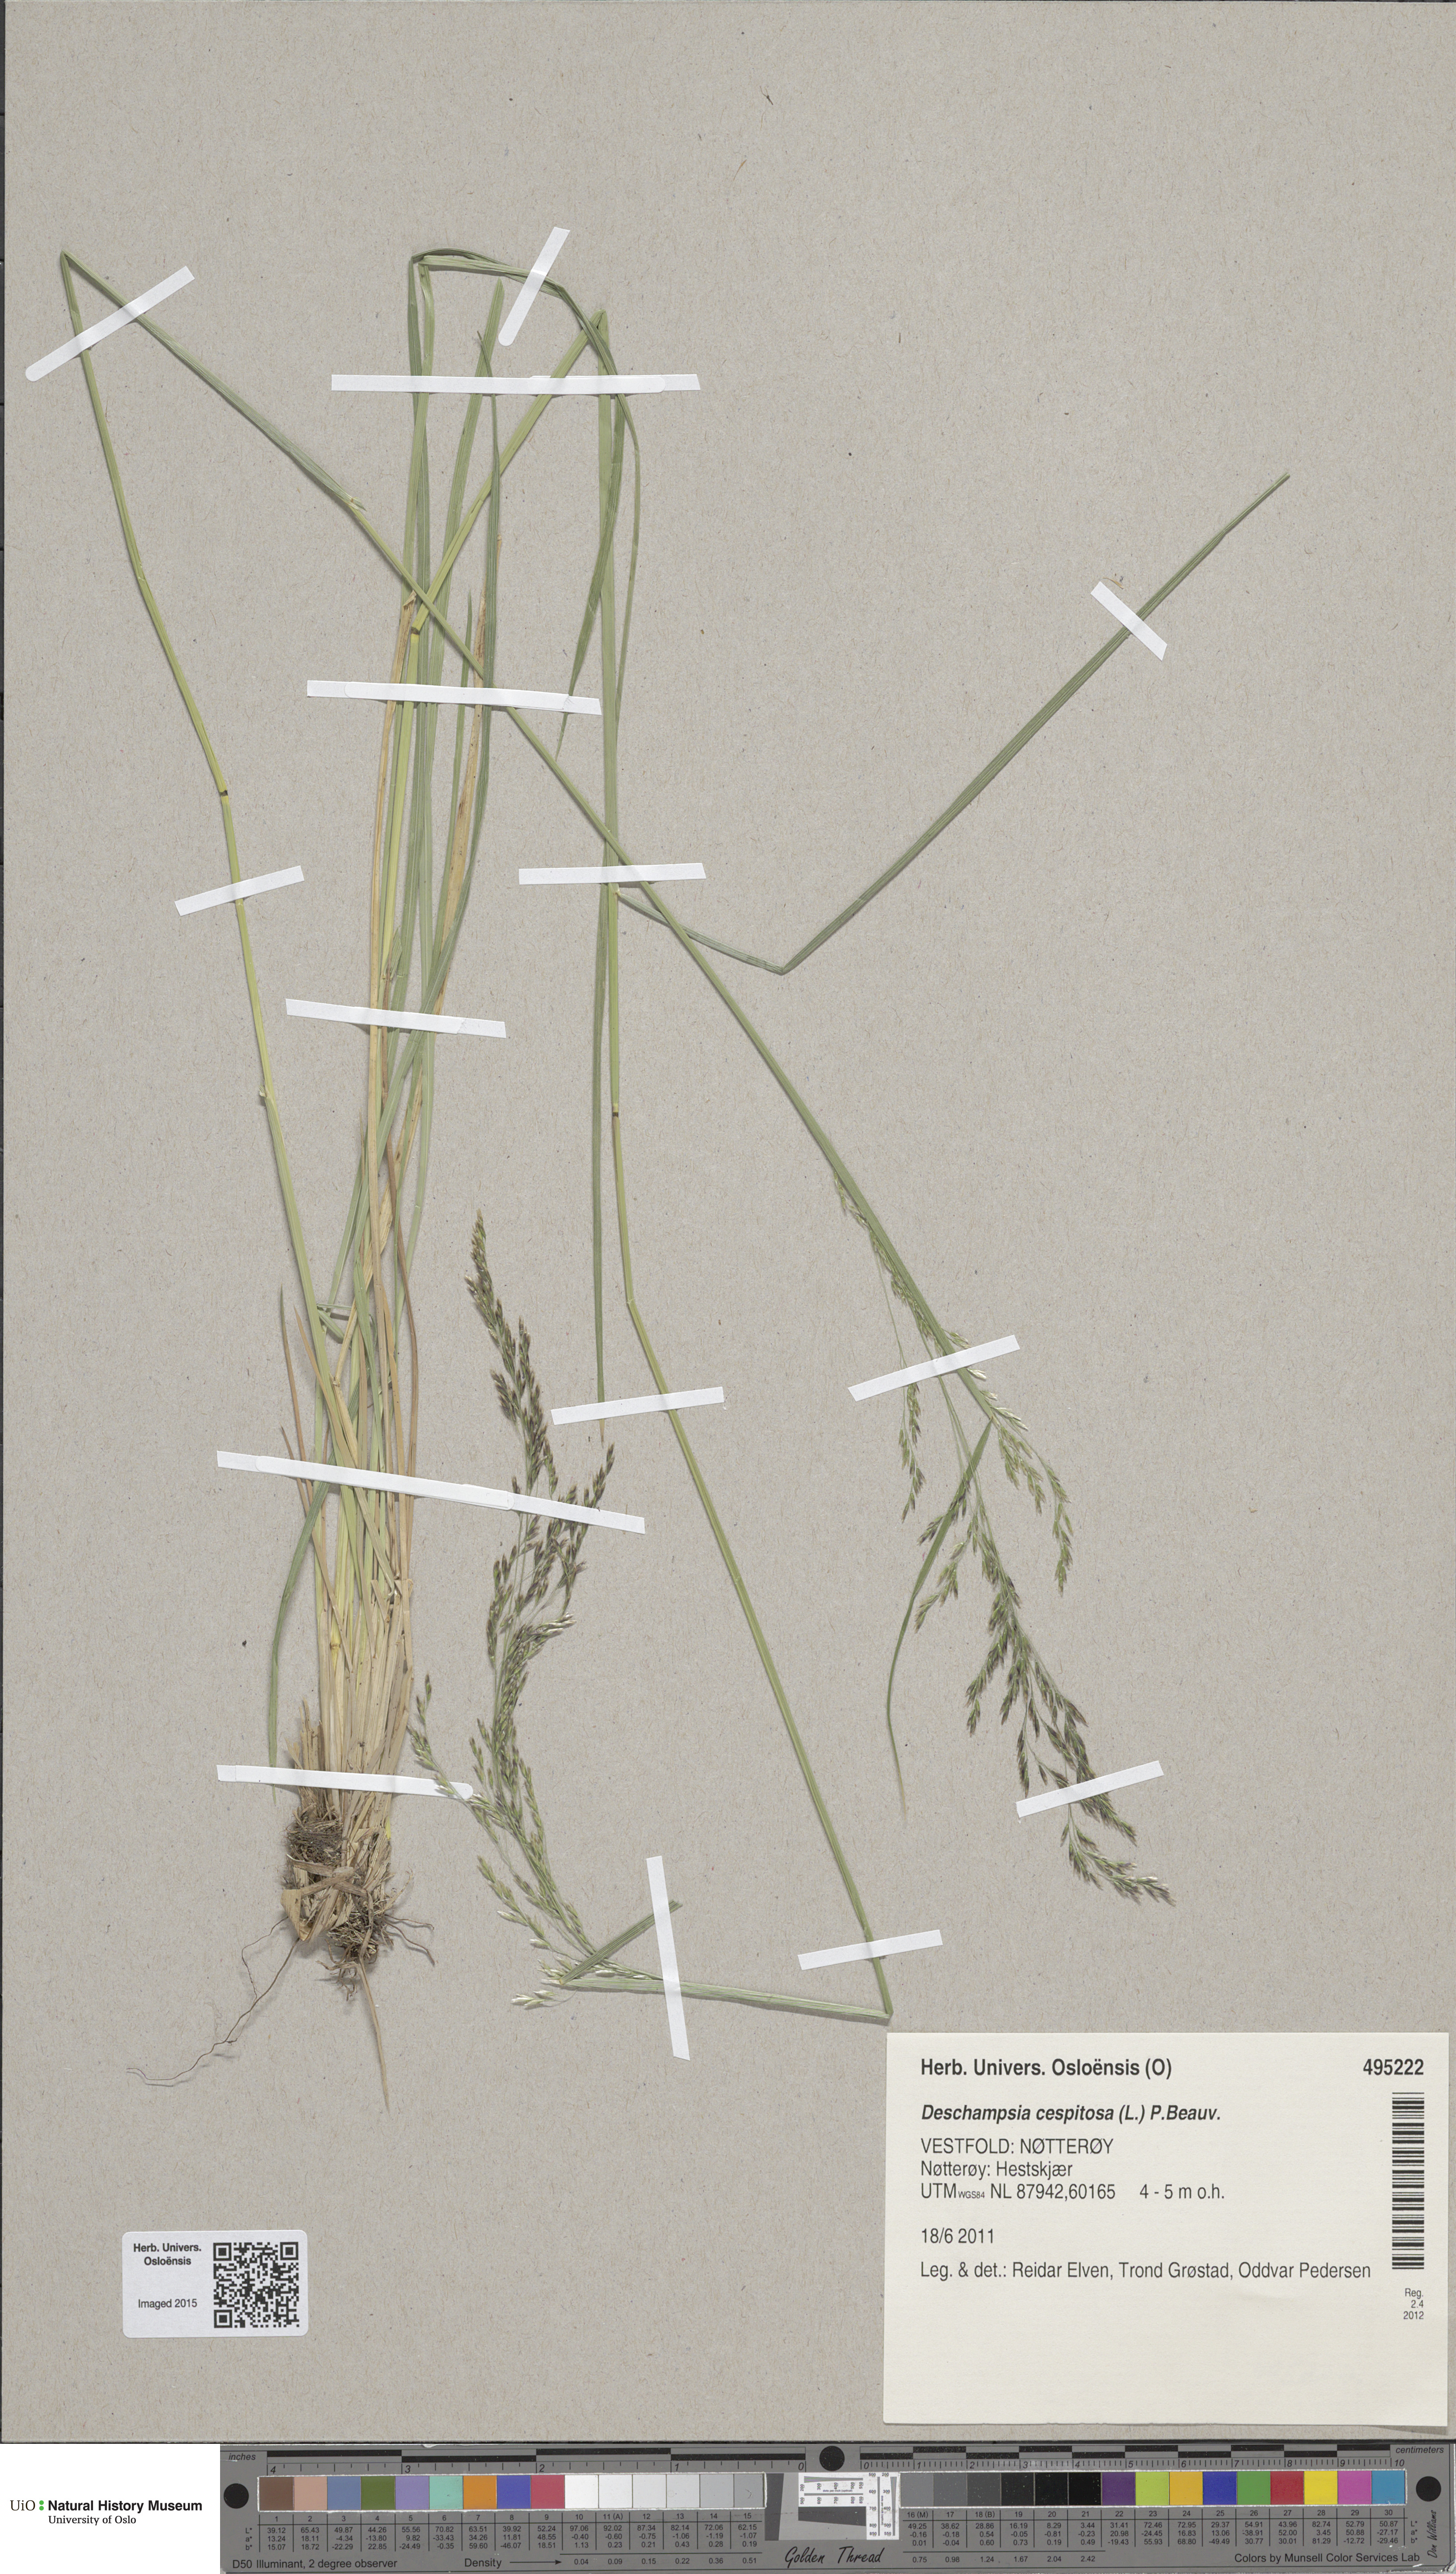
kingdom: Plantae
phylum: Tracheophyta
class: Liliopsida
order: Poales
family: Poaceae
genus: Deschampsia
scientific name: Deschampsia cespitosa
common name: Tufted hair-grass
